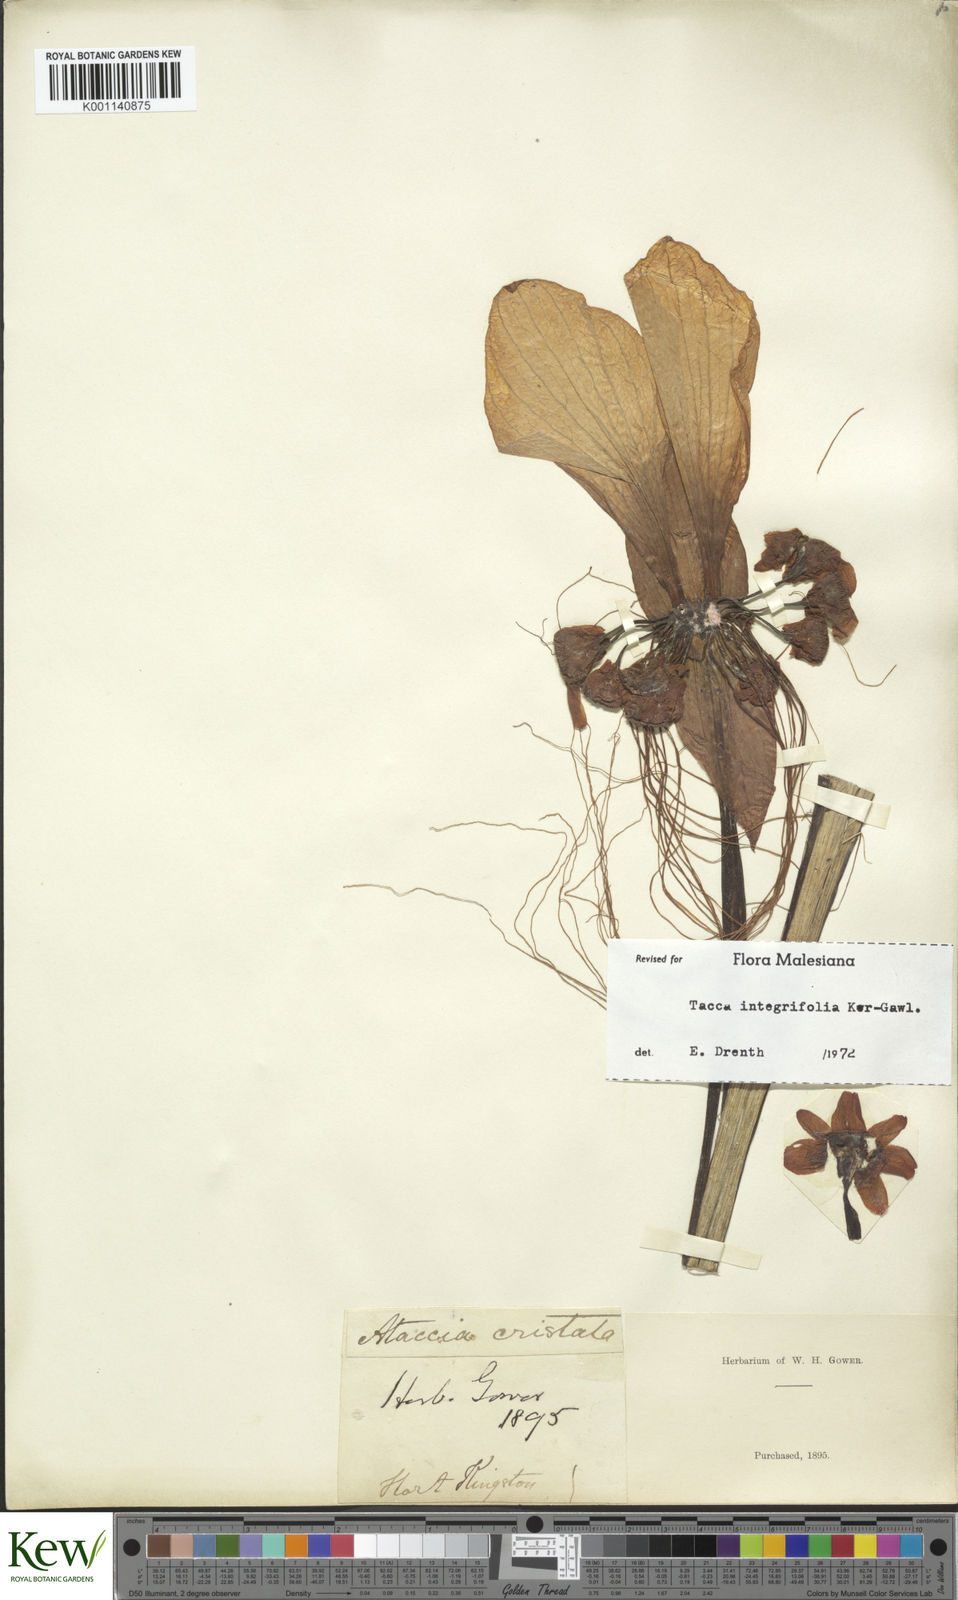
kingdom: Plantae
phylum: Tracheophyta
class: Liliopsida
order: Dioscoreales
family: Dioscoreaceae
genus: Tacca
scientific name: Tacca integrifolia
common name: Batplant
